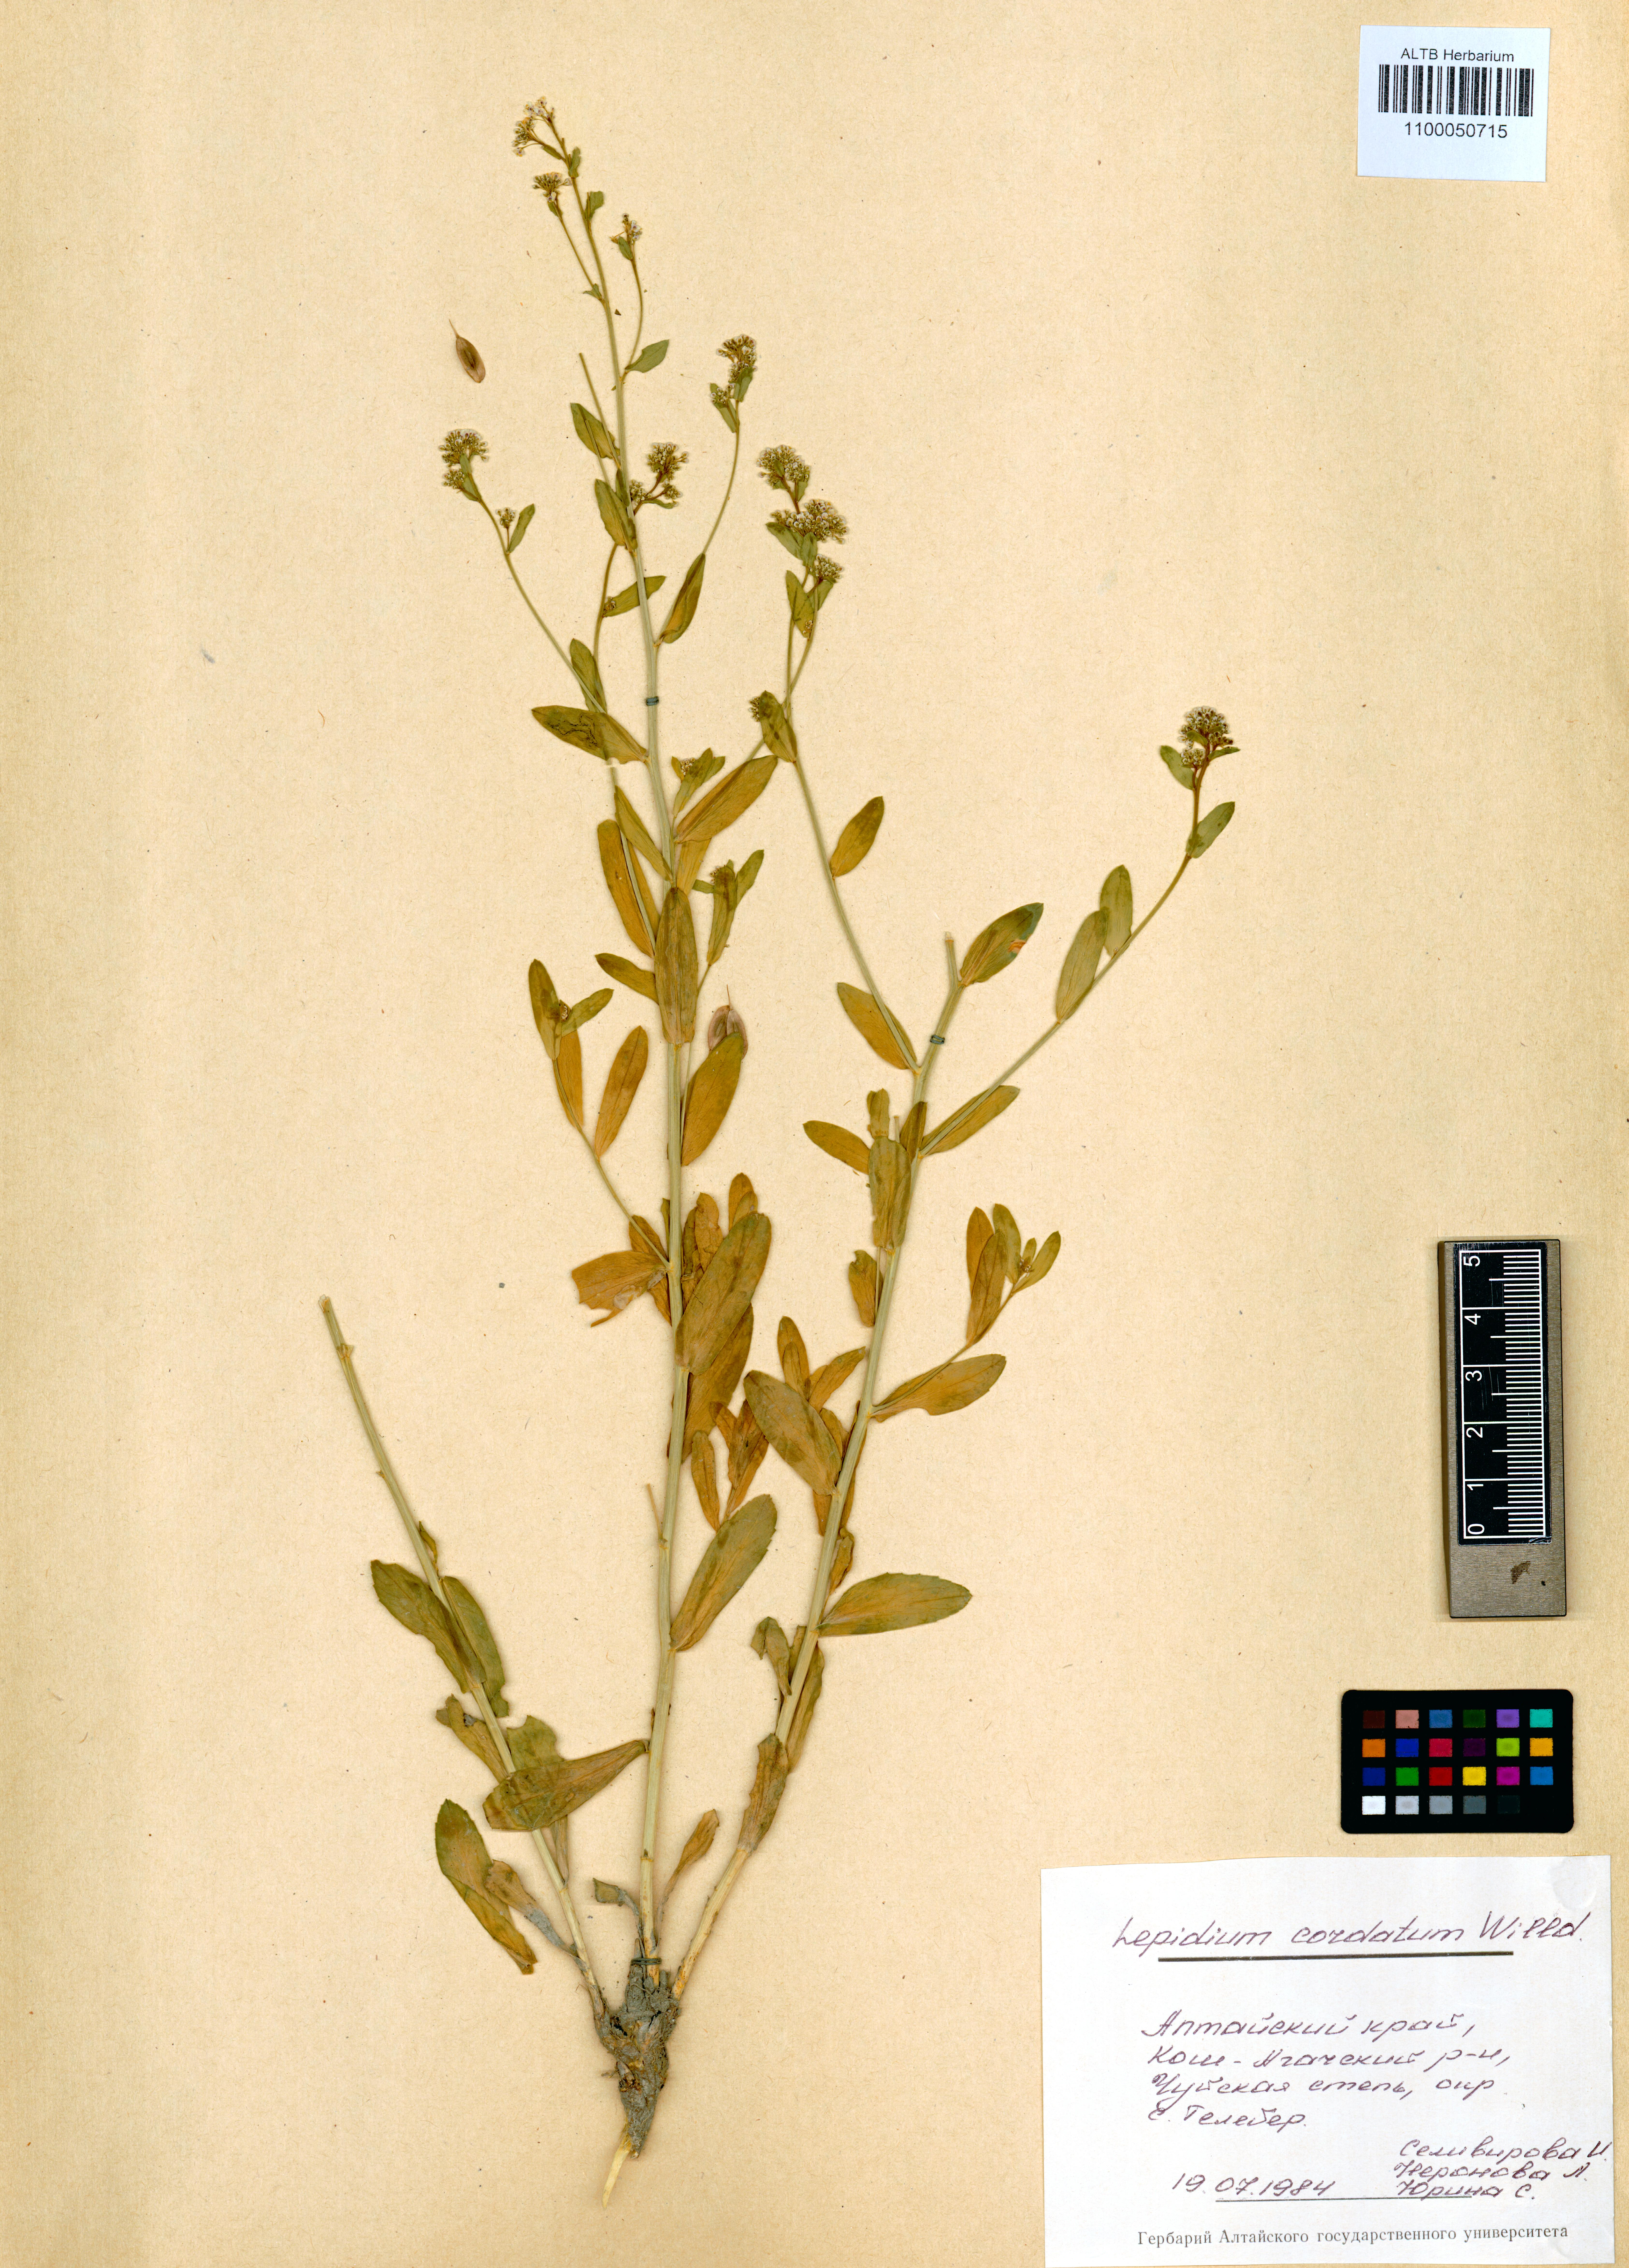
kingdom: Plantae
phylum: Tracheophyta
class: Magnoliopsida
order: Brassicales
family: Brassicaceae
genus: Lepidium
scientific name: Lepidium cordatum
